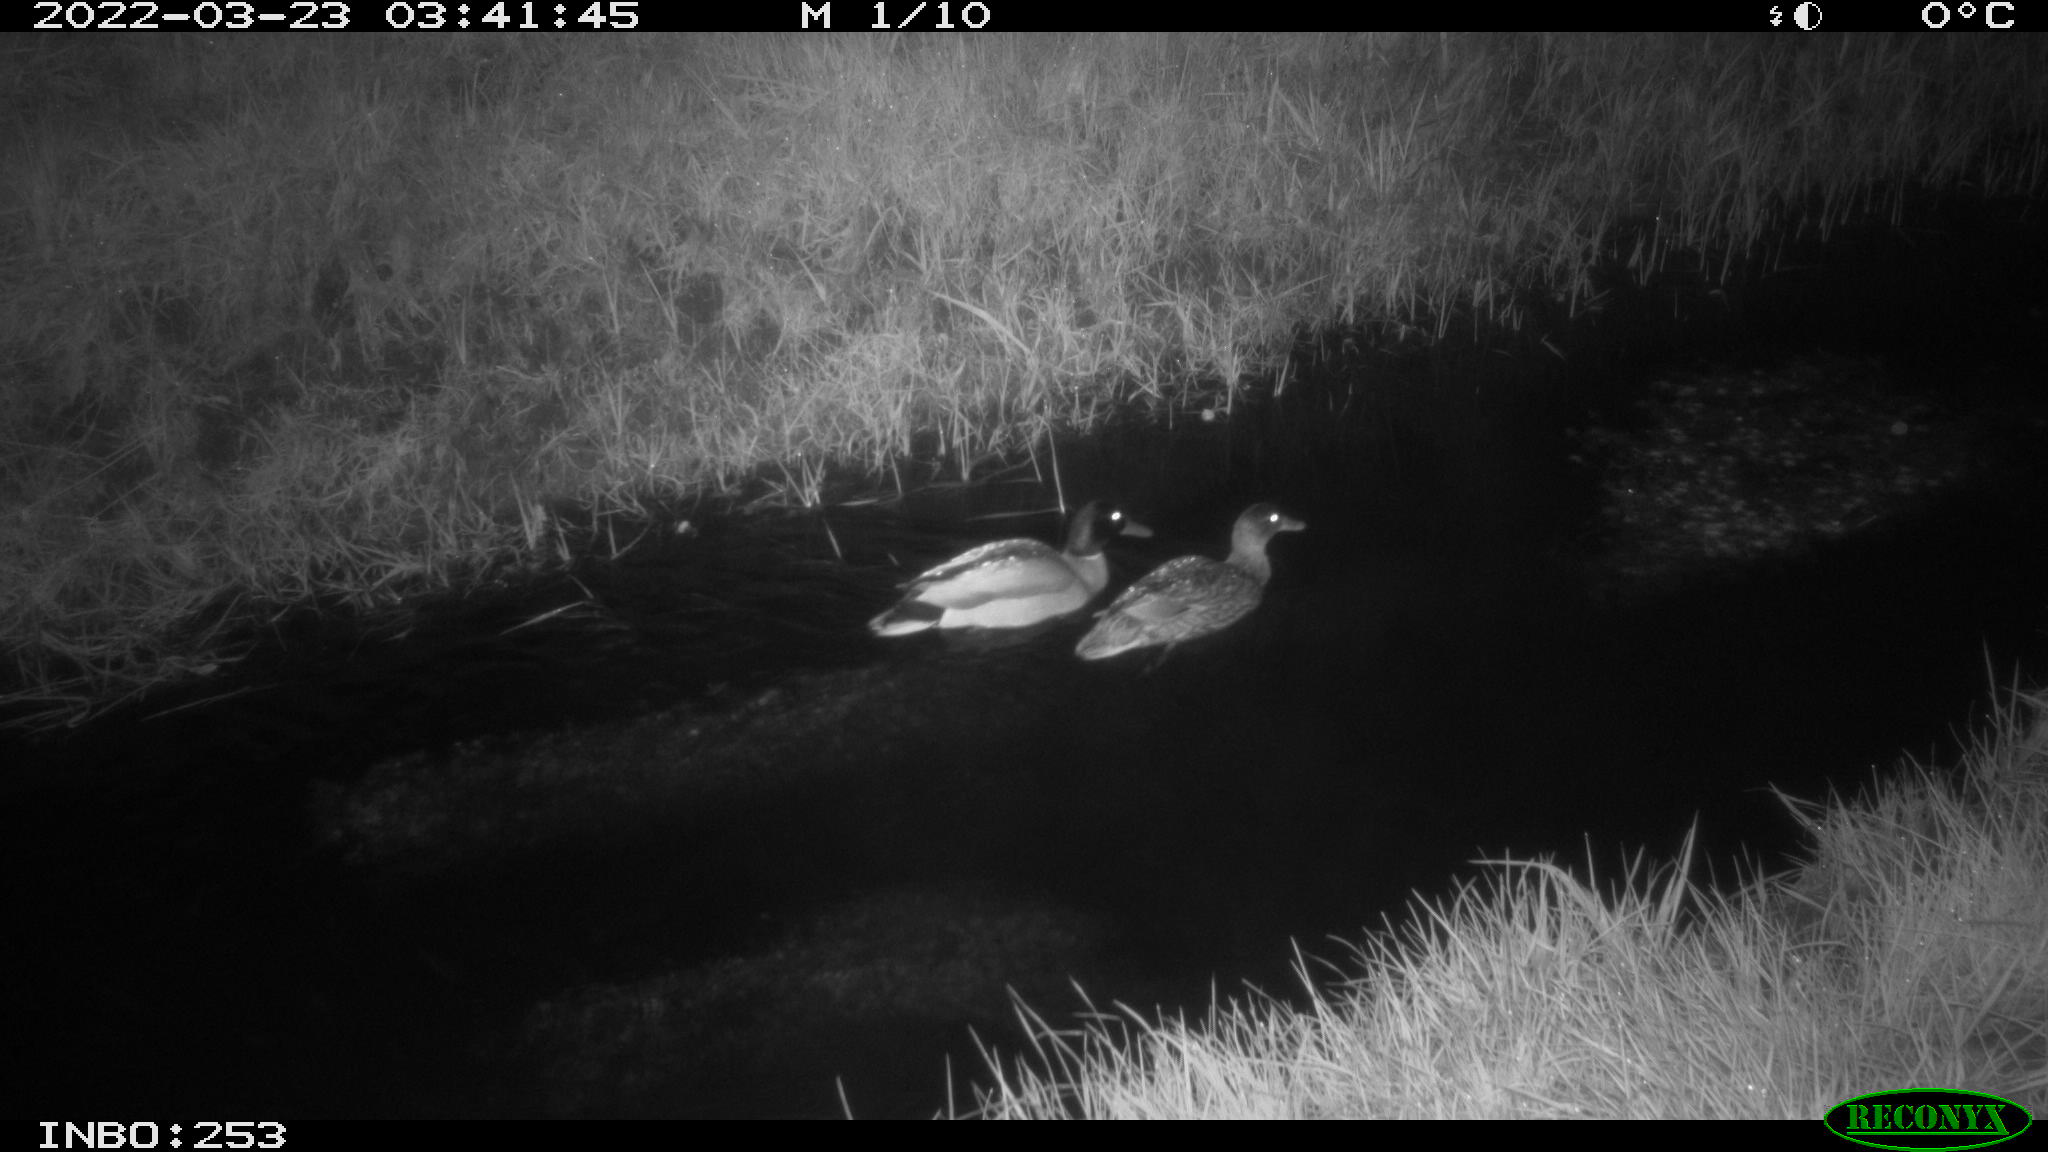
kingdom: Animalia
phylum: Chordata
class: Aves
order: Anseriformes
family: Anatidae
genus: Anas
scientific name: Anas platyrhynchos
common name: Mallard
